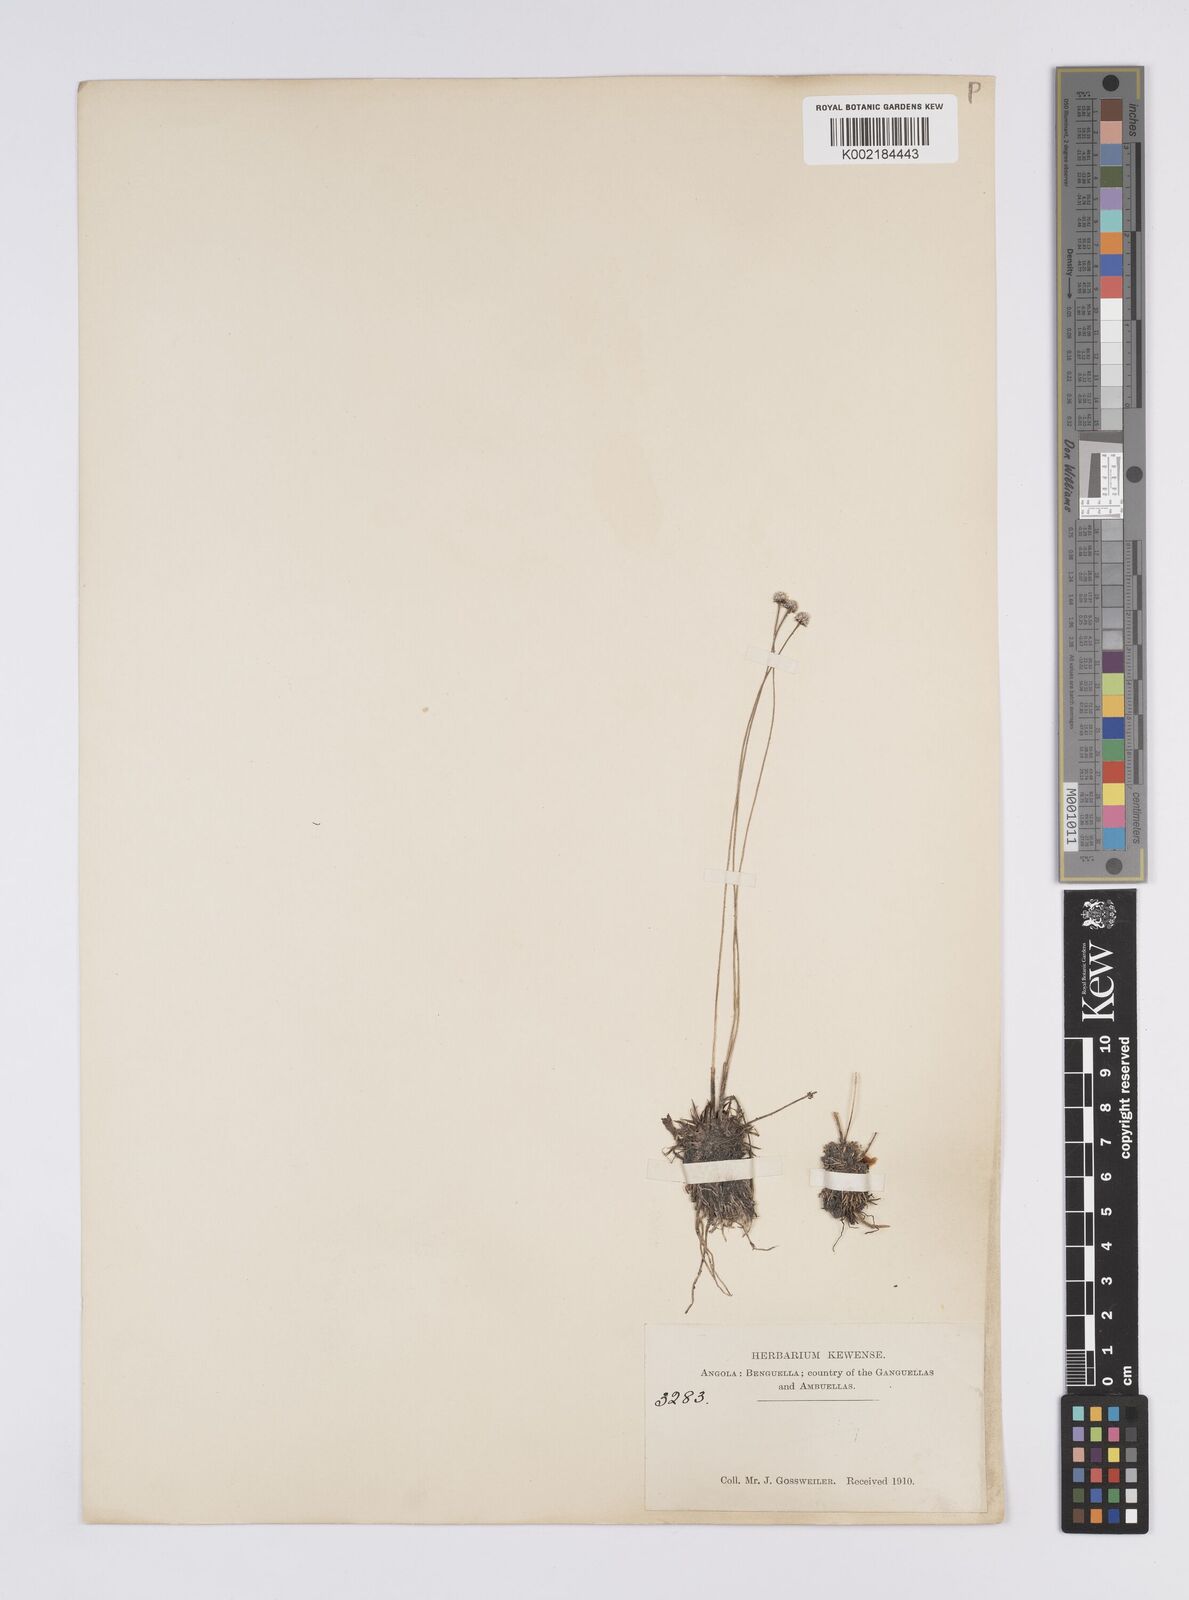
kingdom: Plantae
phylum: Tracheophyta
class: Liliopsida
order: Poales
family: Eriocaulaceae
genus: Eriocaulon
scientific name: Eriocaulon
